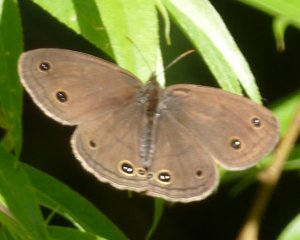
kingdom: Animalia
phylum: Arthropoda
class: Insecta
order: Lepidoptera
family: Nymphalidae
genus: Euptychia
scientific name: Euptychia cymela
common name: Little Wood Satyr
